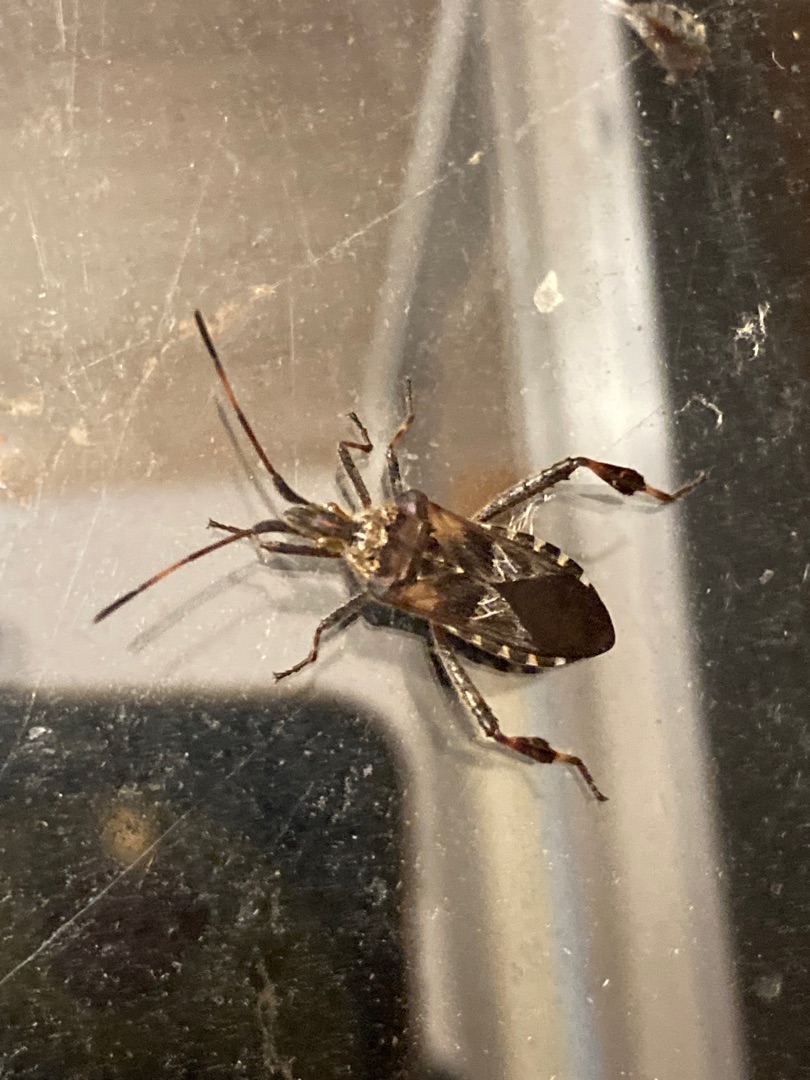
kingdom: Animalia
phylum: Arthropoda
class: Insecta
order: Hemiptera
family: Coreidae
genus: Leptoglossus
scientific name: Leptoglossus occidentalis
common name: Amerikansk fyrretæge
